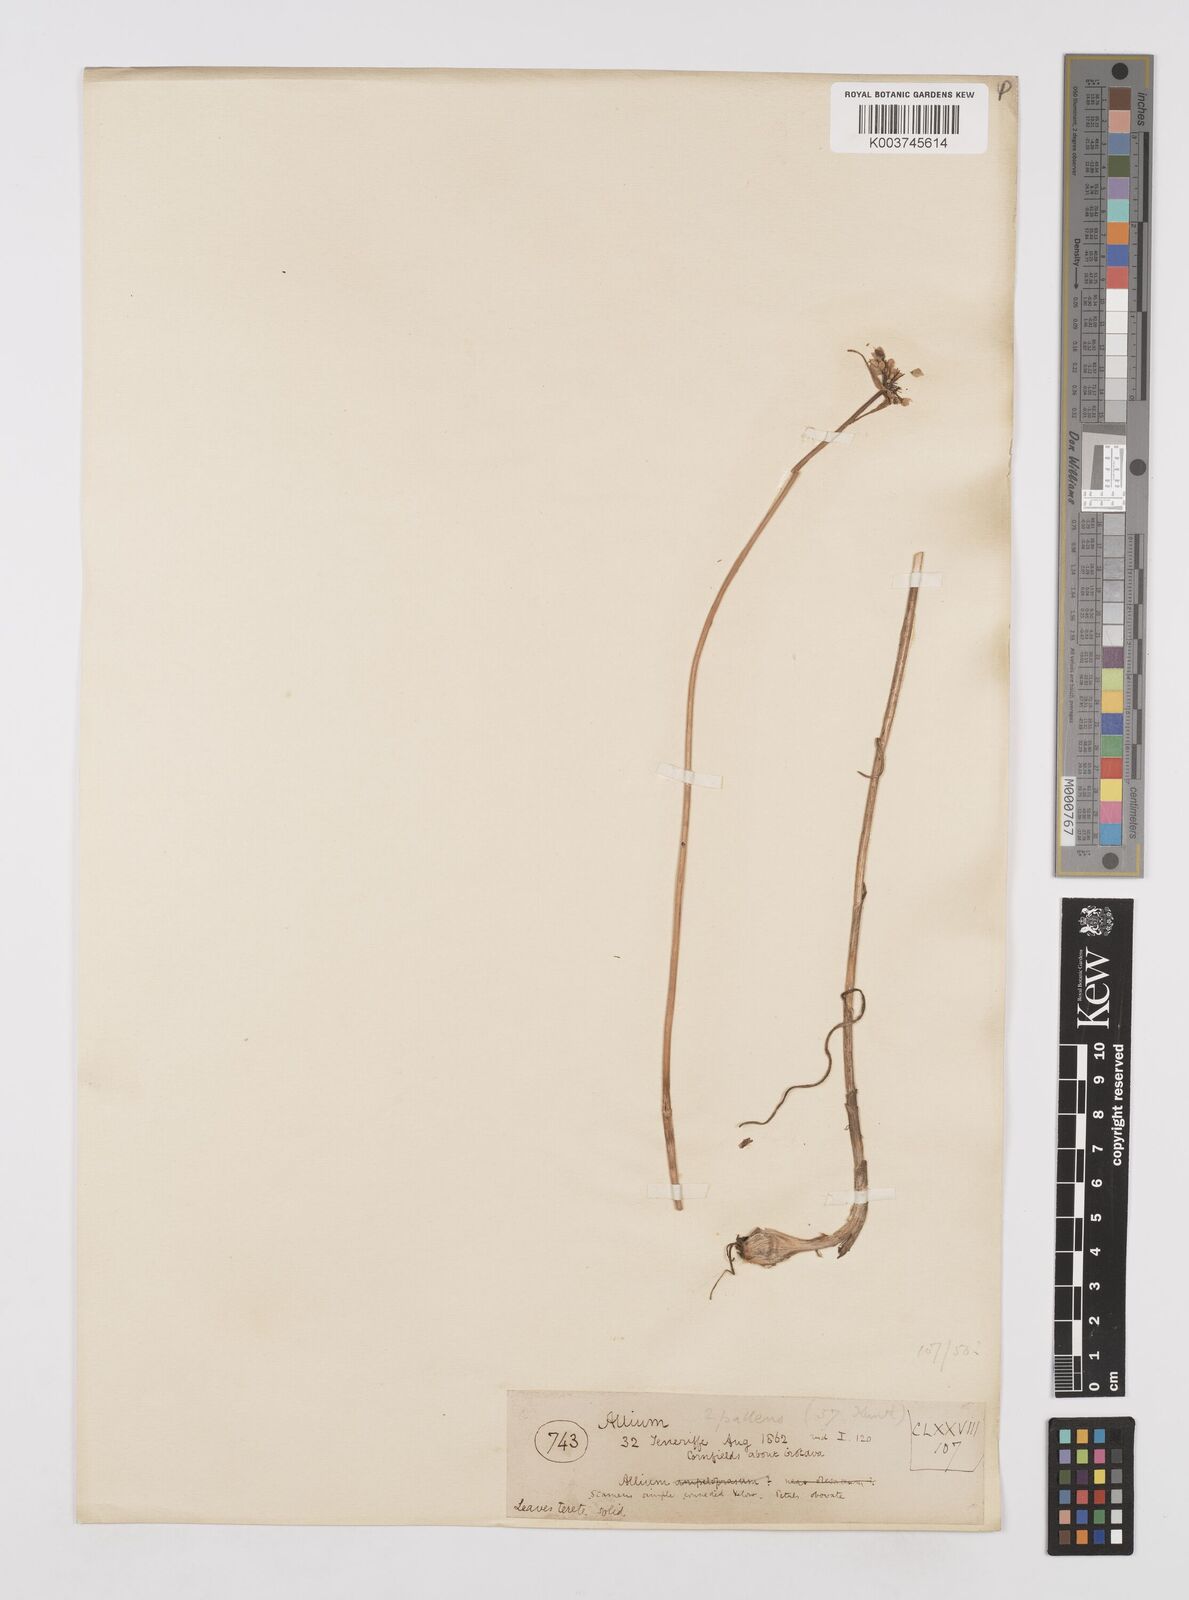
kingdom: Plantae
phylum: Tracheophyta
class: Liliopsida
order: Asparagales
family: Amaryllidaceae
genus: Allium
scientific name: Allium flavum
